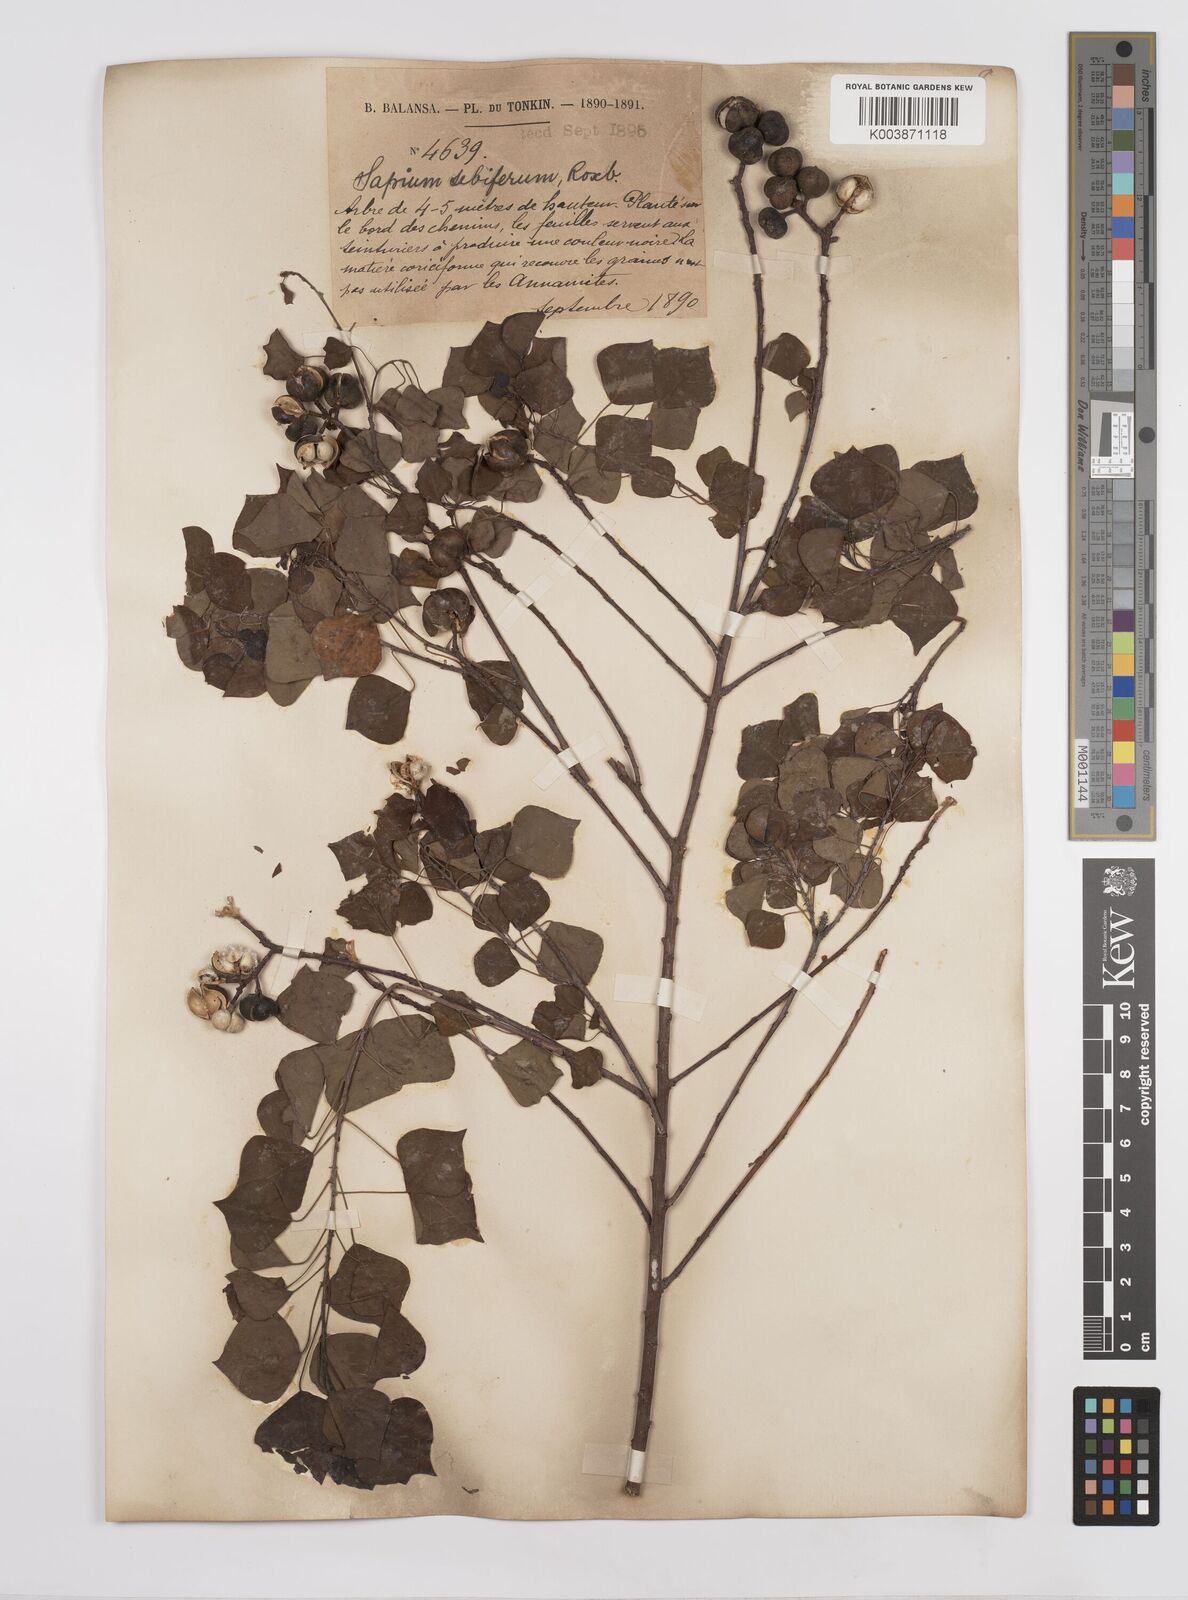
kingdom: Plantae
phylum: Tracheophyta
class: Magnoliopsida
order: Malpighiales
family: Euphorbiaceae
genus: Triadica
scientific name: Triadica sebifera
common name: Chinese tallow
